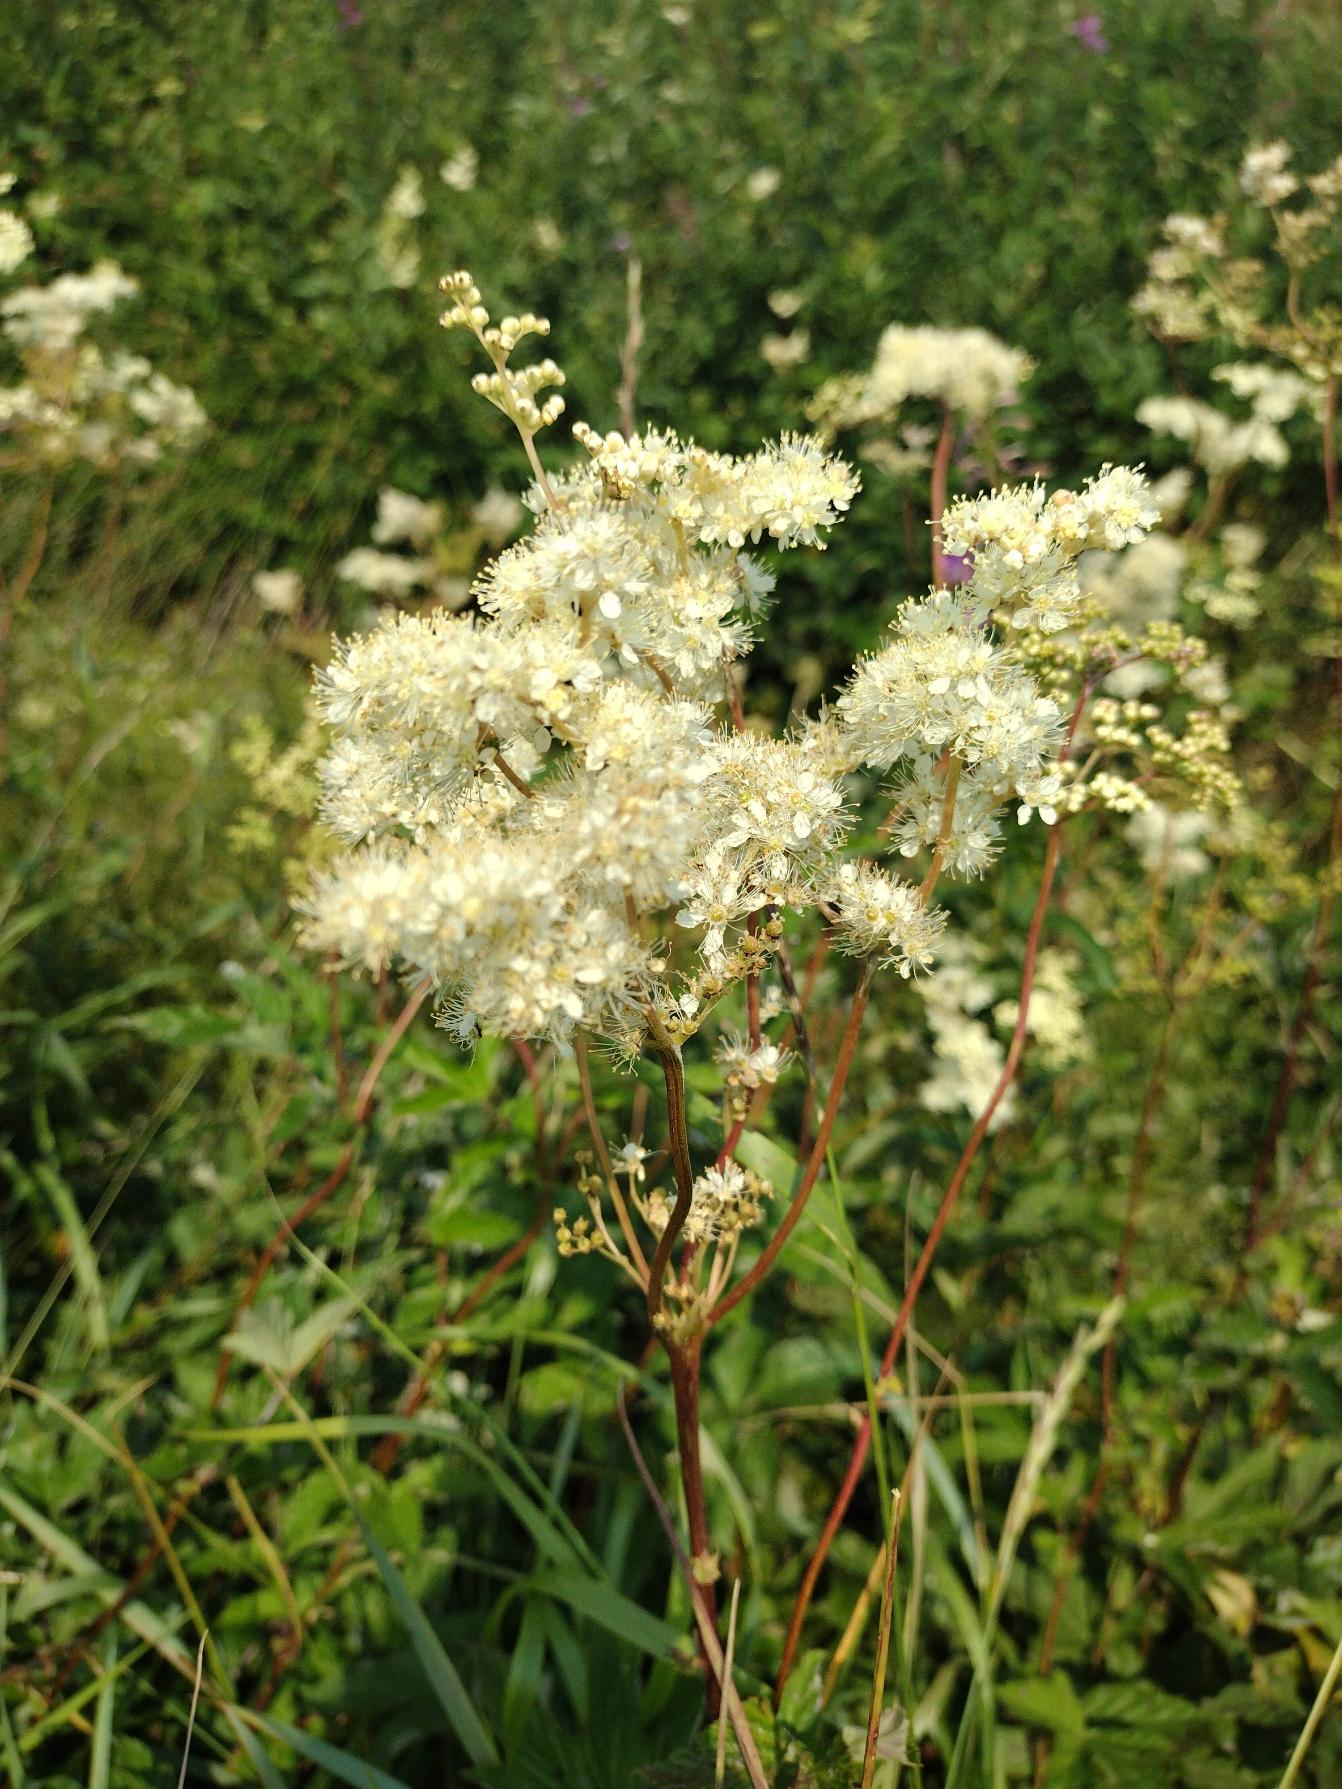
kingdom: Plantae
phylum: Tracheophyta
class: Magnoliopsida
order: Rosales
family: Rosaceae
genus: Filipendula
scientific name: Filipendula ulmaria
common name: Almindelig mjødurt
